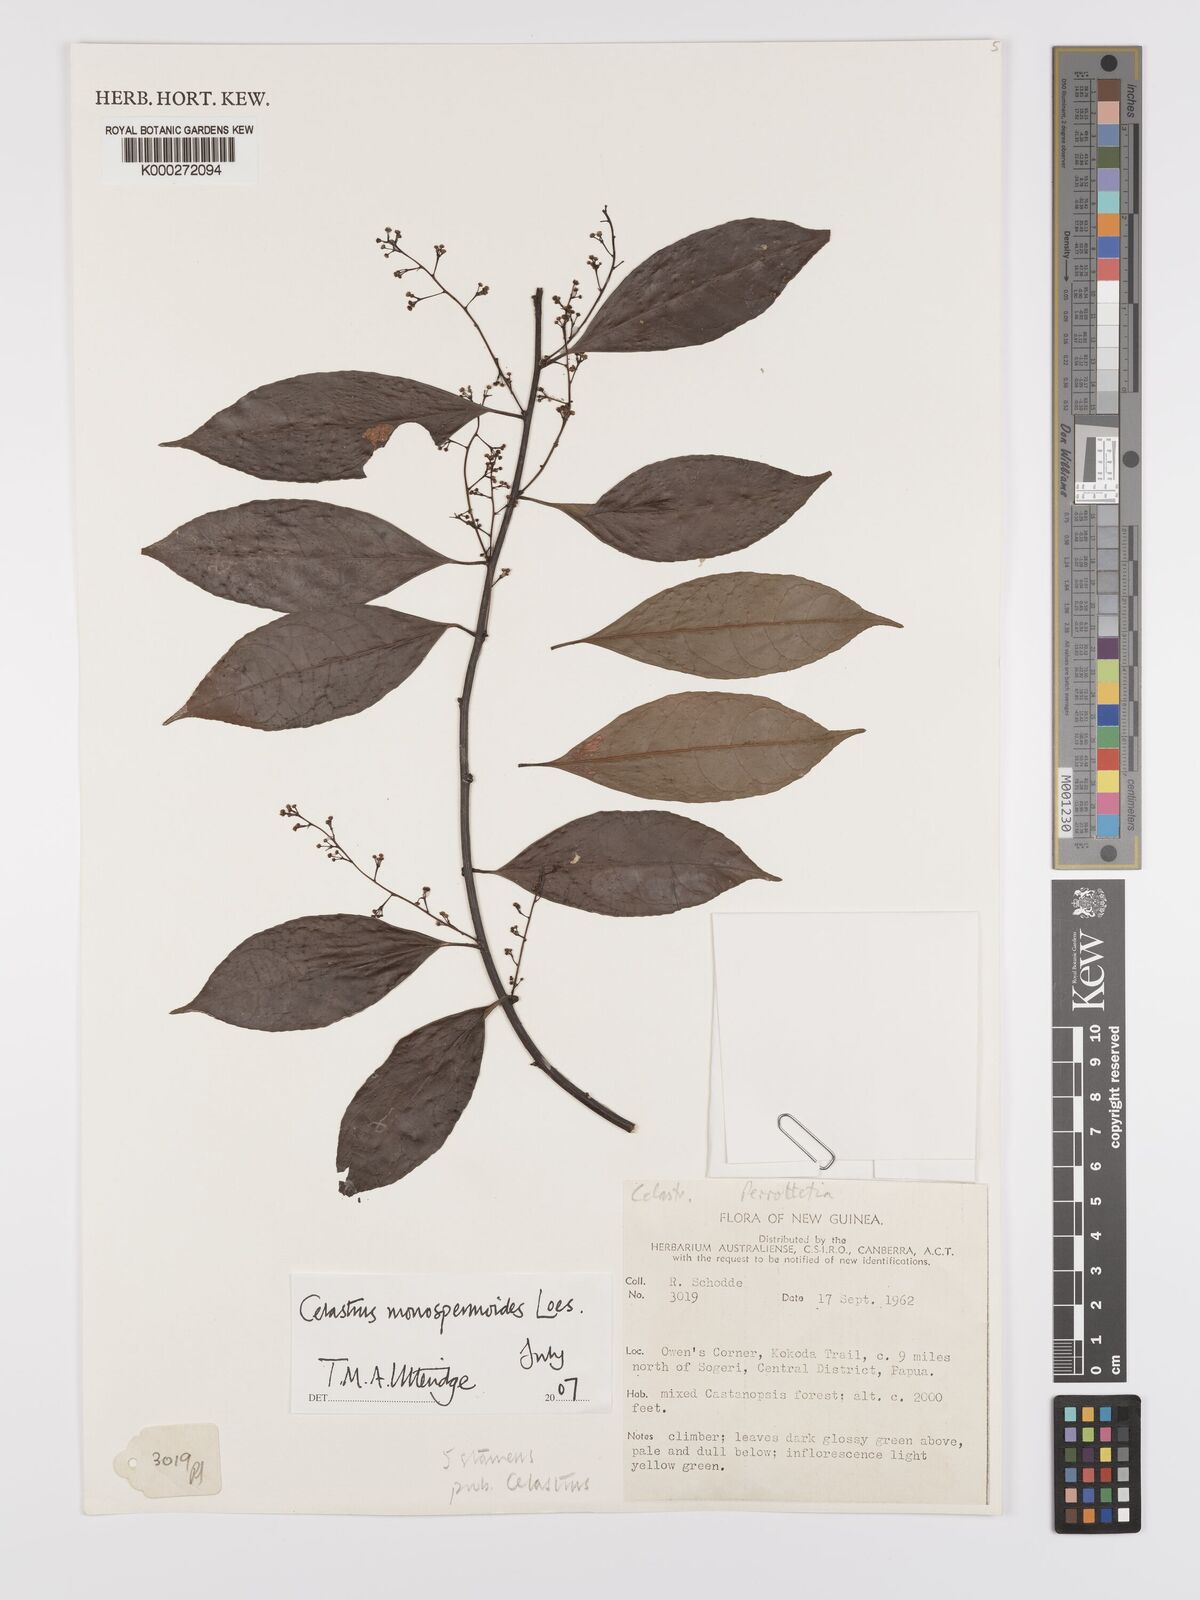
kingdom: Plantae
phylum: Tracheophyta
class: Magnoliopsida
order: Celastrales
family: Celastraceae
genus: Celastrus
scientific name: Celastrus monospermoides
